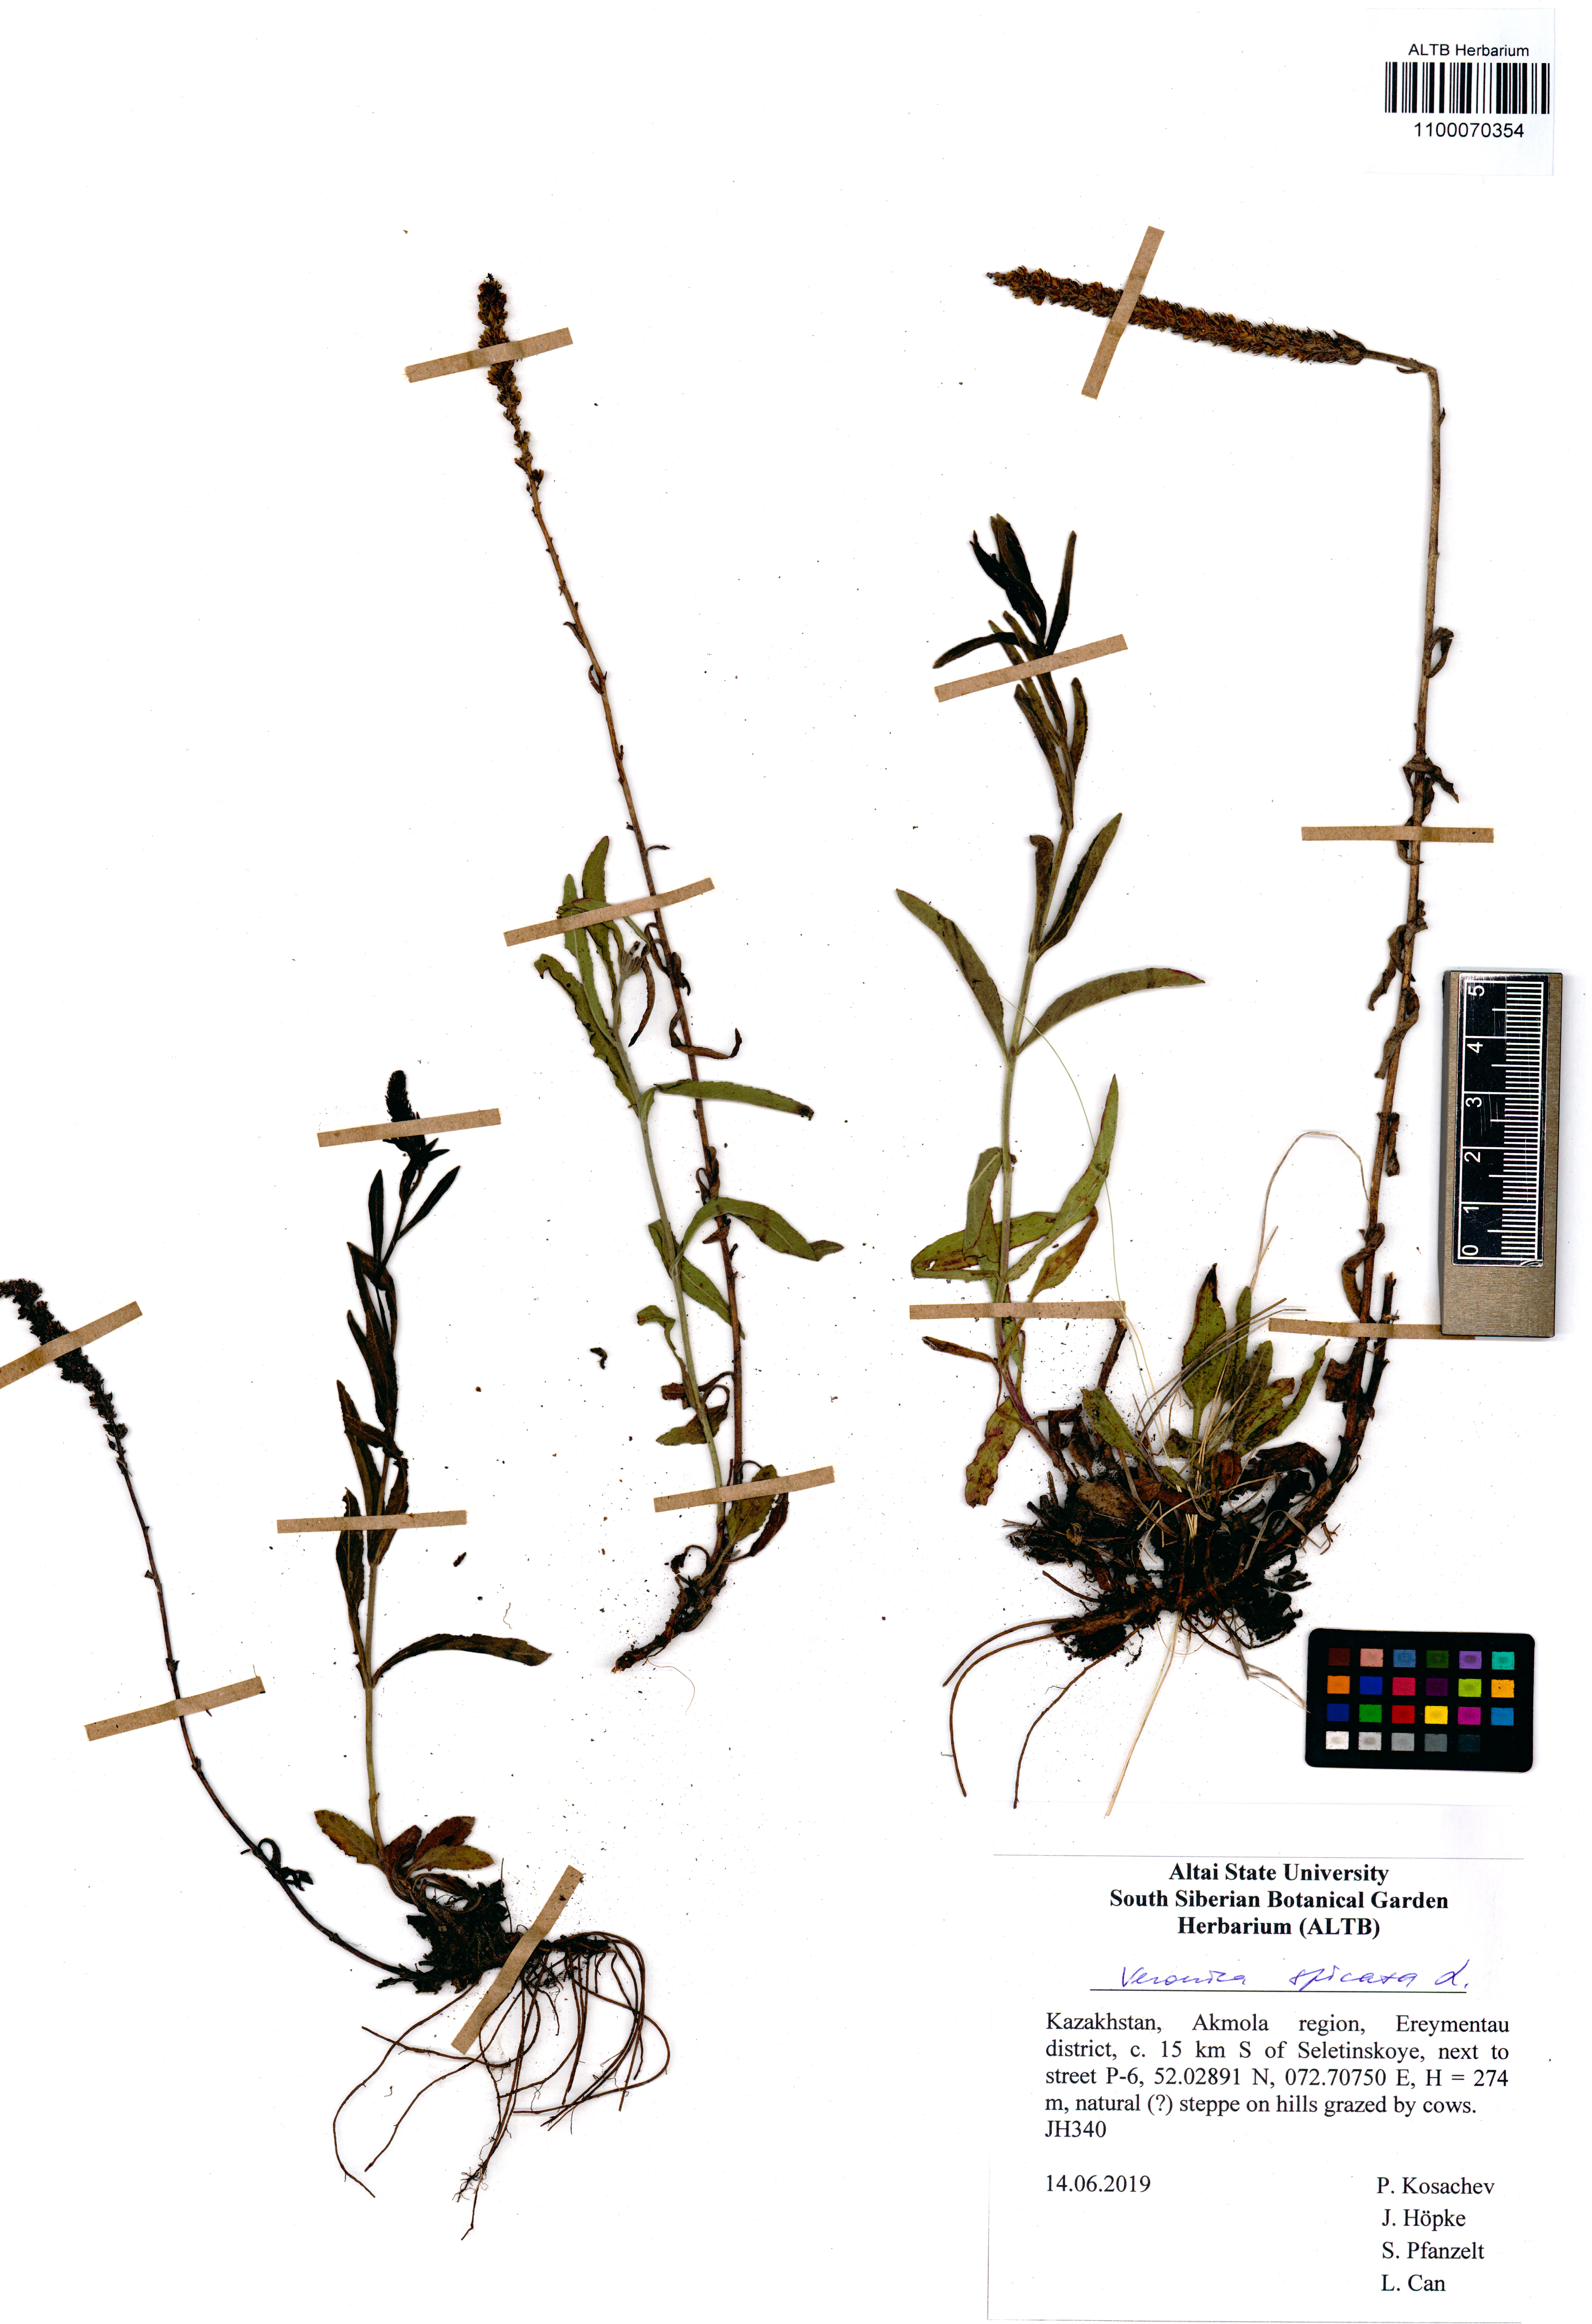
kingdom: Plantae
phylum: Tracheophyta
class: Magnoliopsida
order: Lamiales
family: Plantaginaceae
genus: Veronica
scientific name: Veronica spicata
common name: Spiked speedwell
